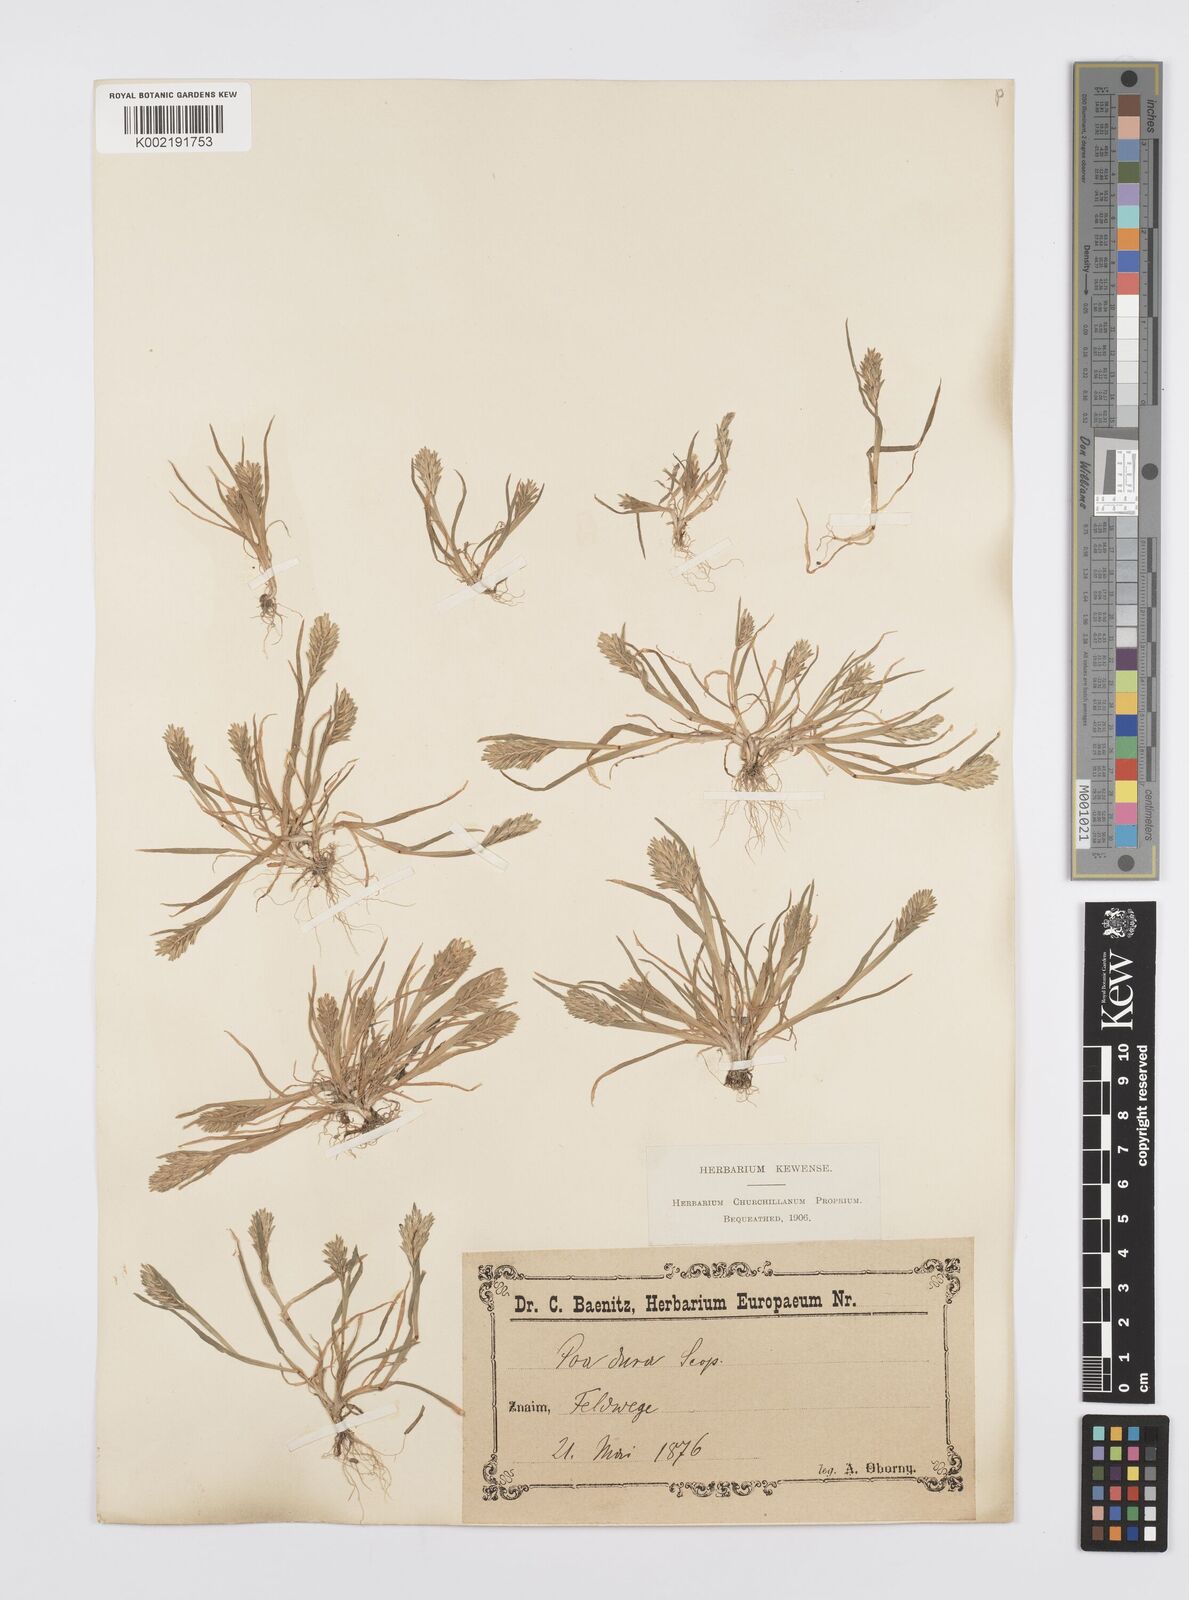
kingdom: Plantae
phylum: Tracheophyta
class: Liliopsida
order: Poales
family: Poaceae
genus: Sclerochloa
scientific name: Sclerochloa dura
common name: Common hardgrass
